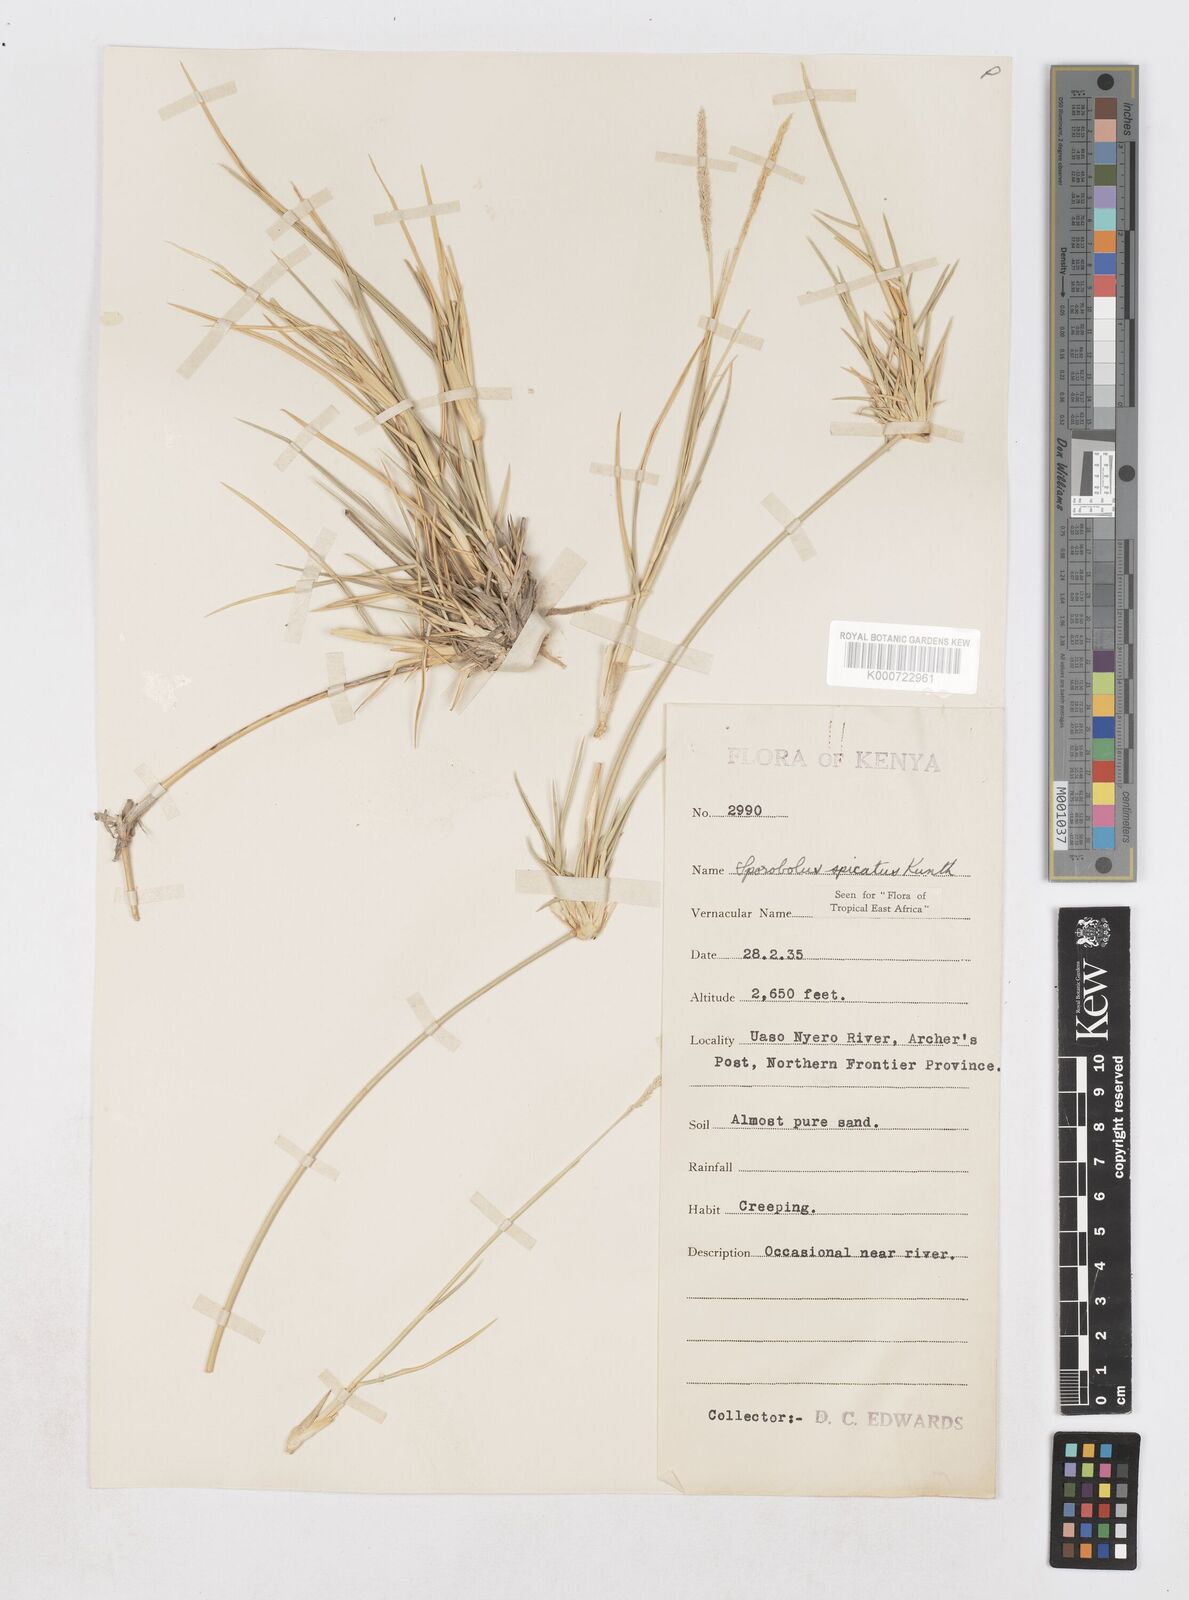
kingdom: Plantae
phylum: Tracheophyta
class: Liliopsida
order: Poales
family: Poaceae
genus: Sporobolus
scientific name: Sporobolus spicatus
